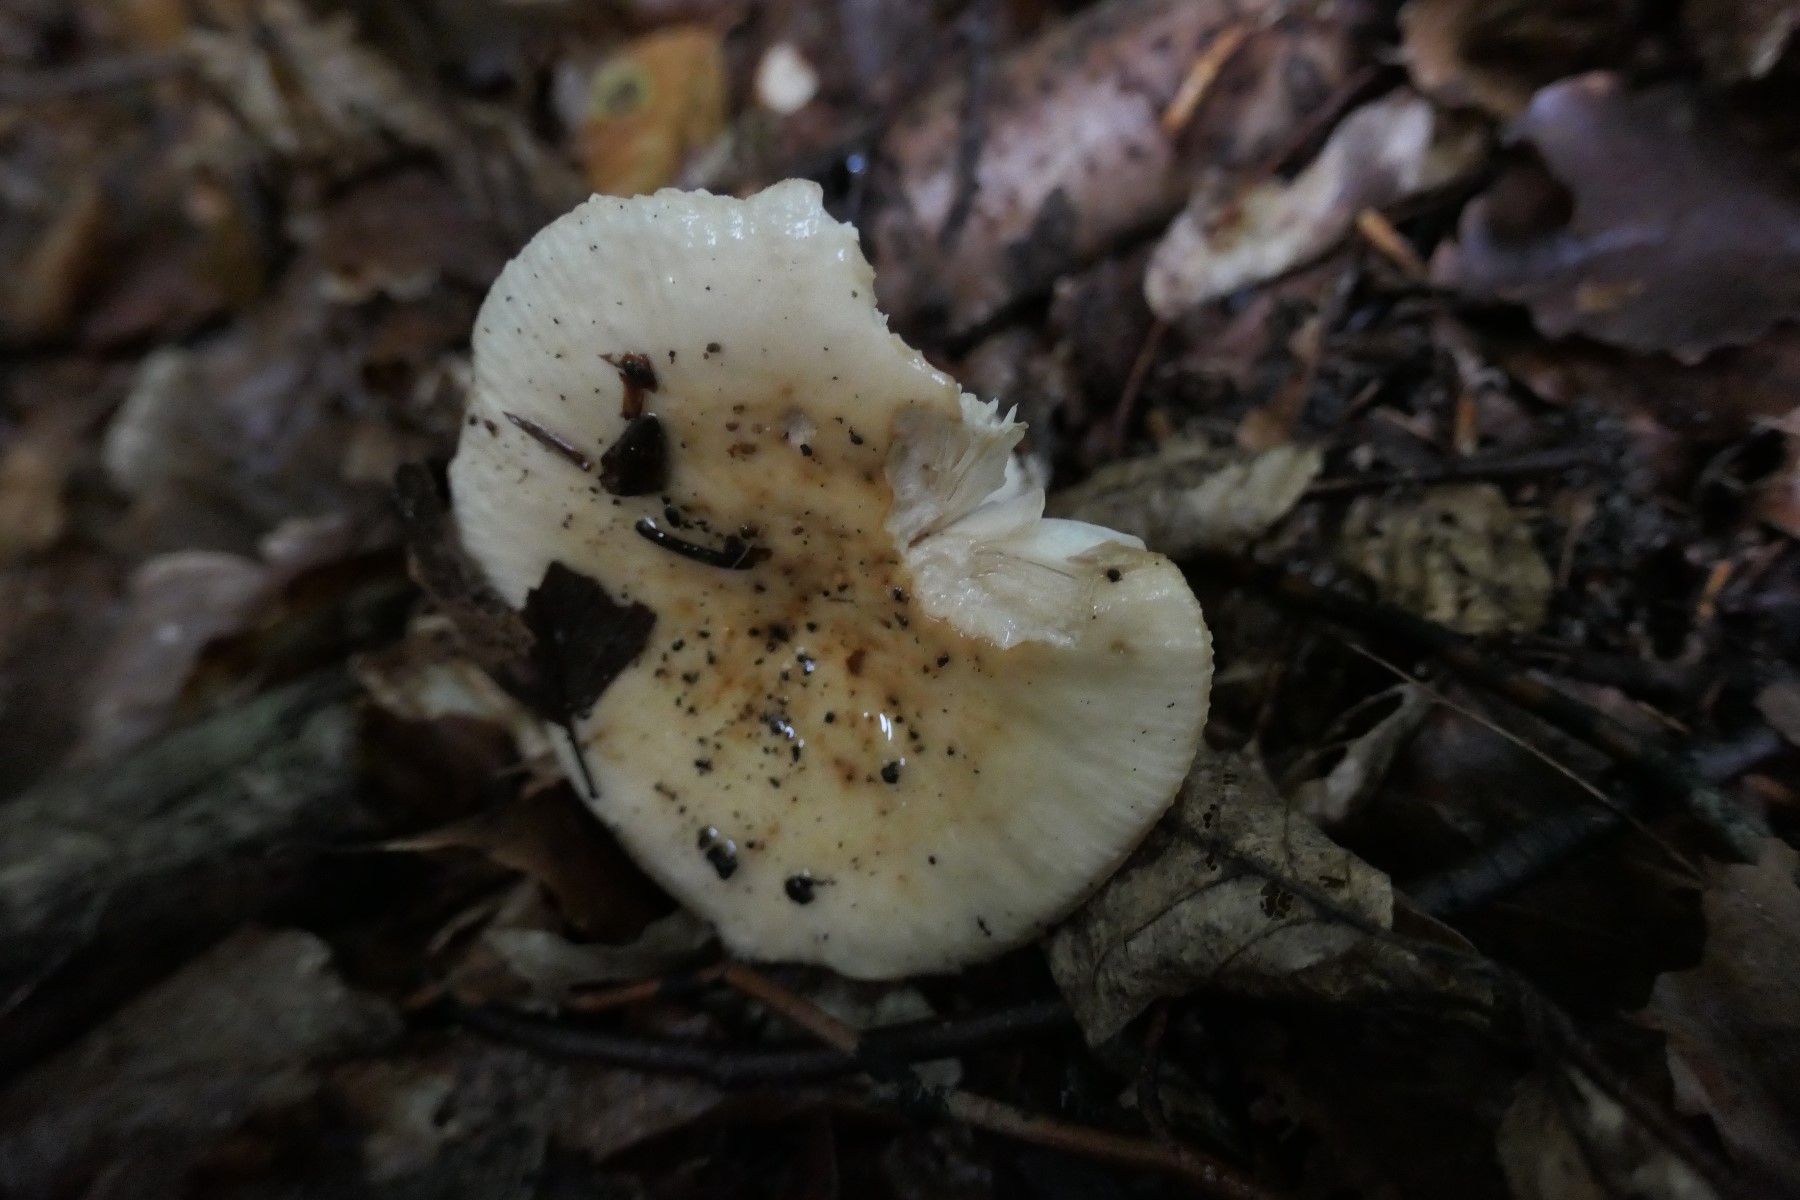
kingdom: Fungi
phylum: Basidiomycota
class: Agaricomycetes
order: Russulales
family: Russulaceae
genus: Russula
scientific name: Russula fellea
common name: galde-skørhat
